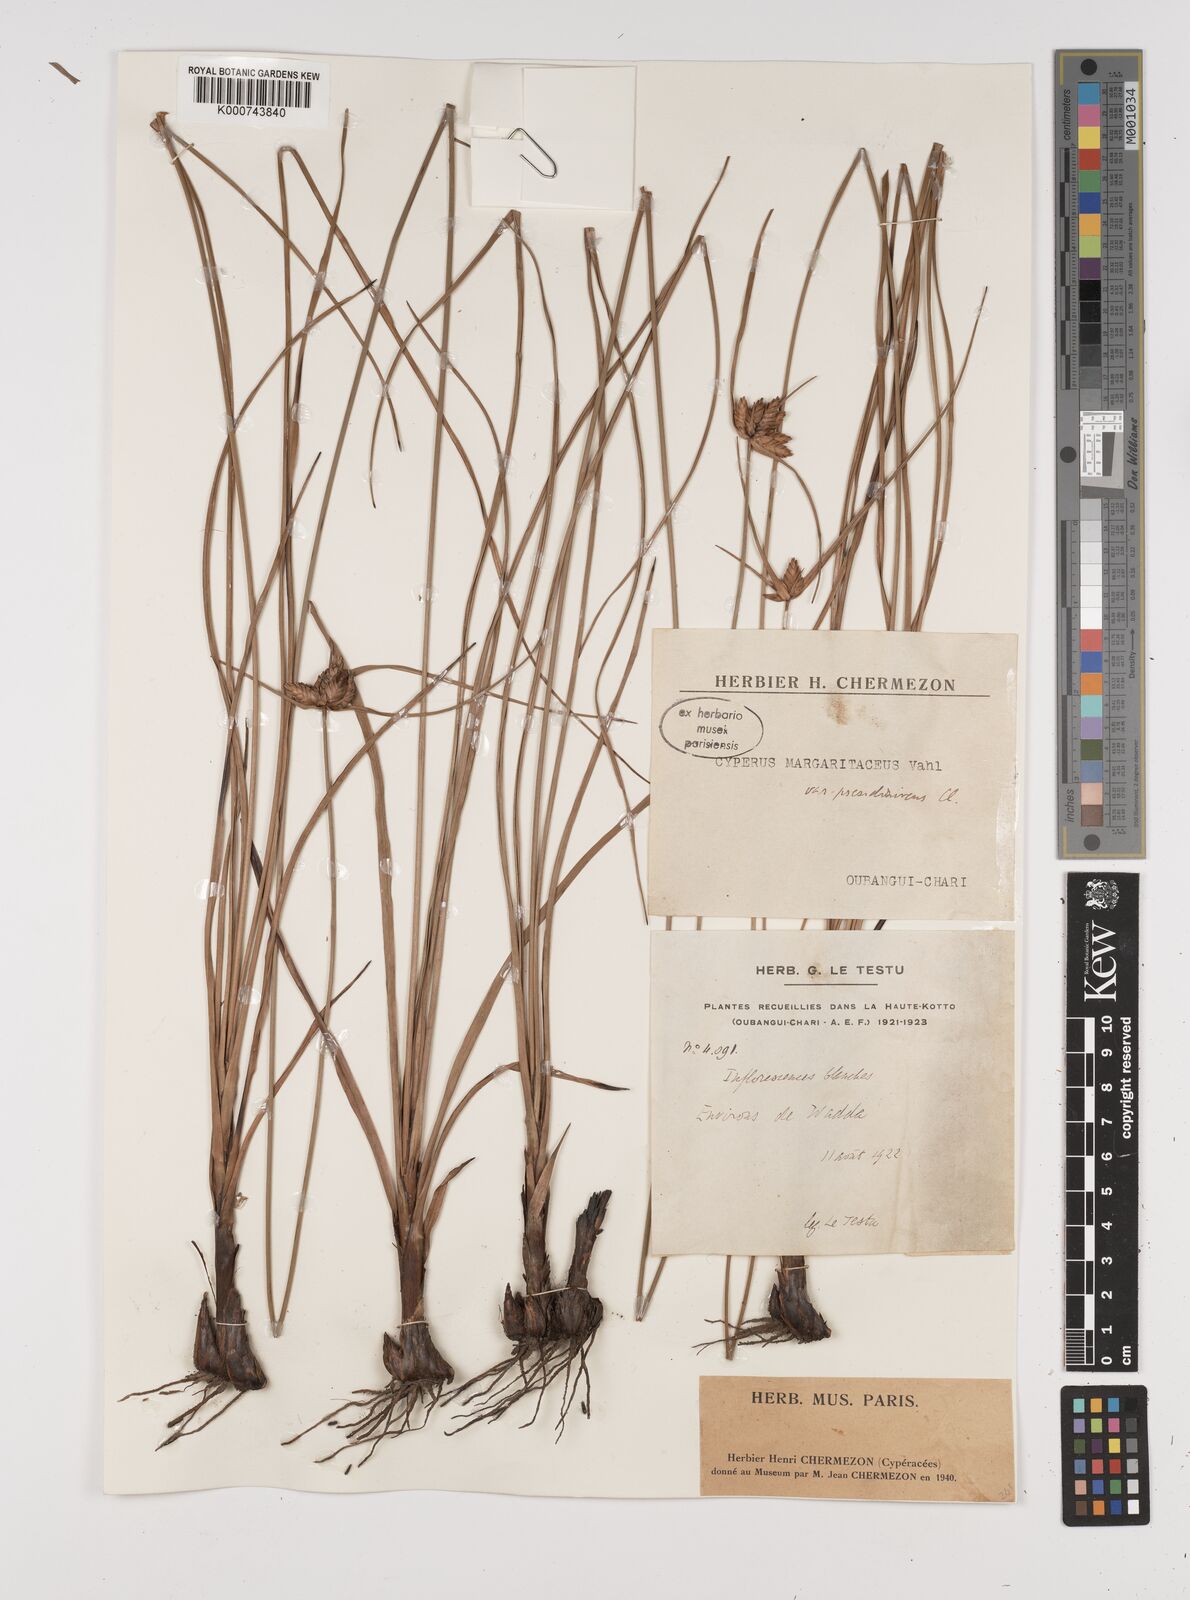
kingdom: Plantae
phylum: Tracheophyta
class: Liliopsida
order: Poales
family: Cyperaceae
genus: Cyperus
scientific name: Cyperus margaritaceus
